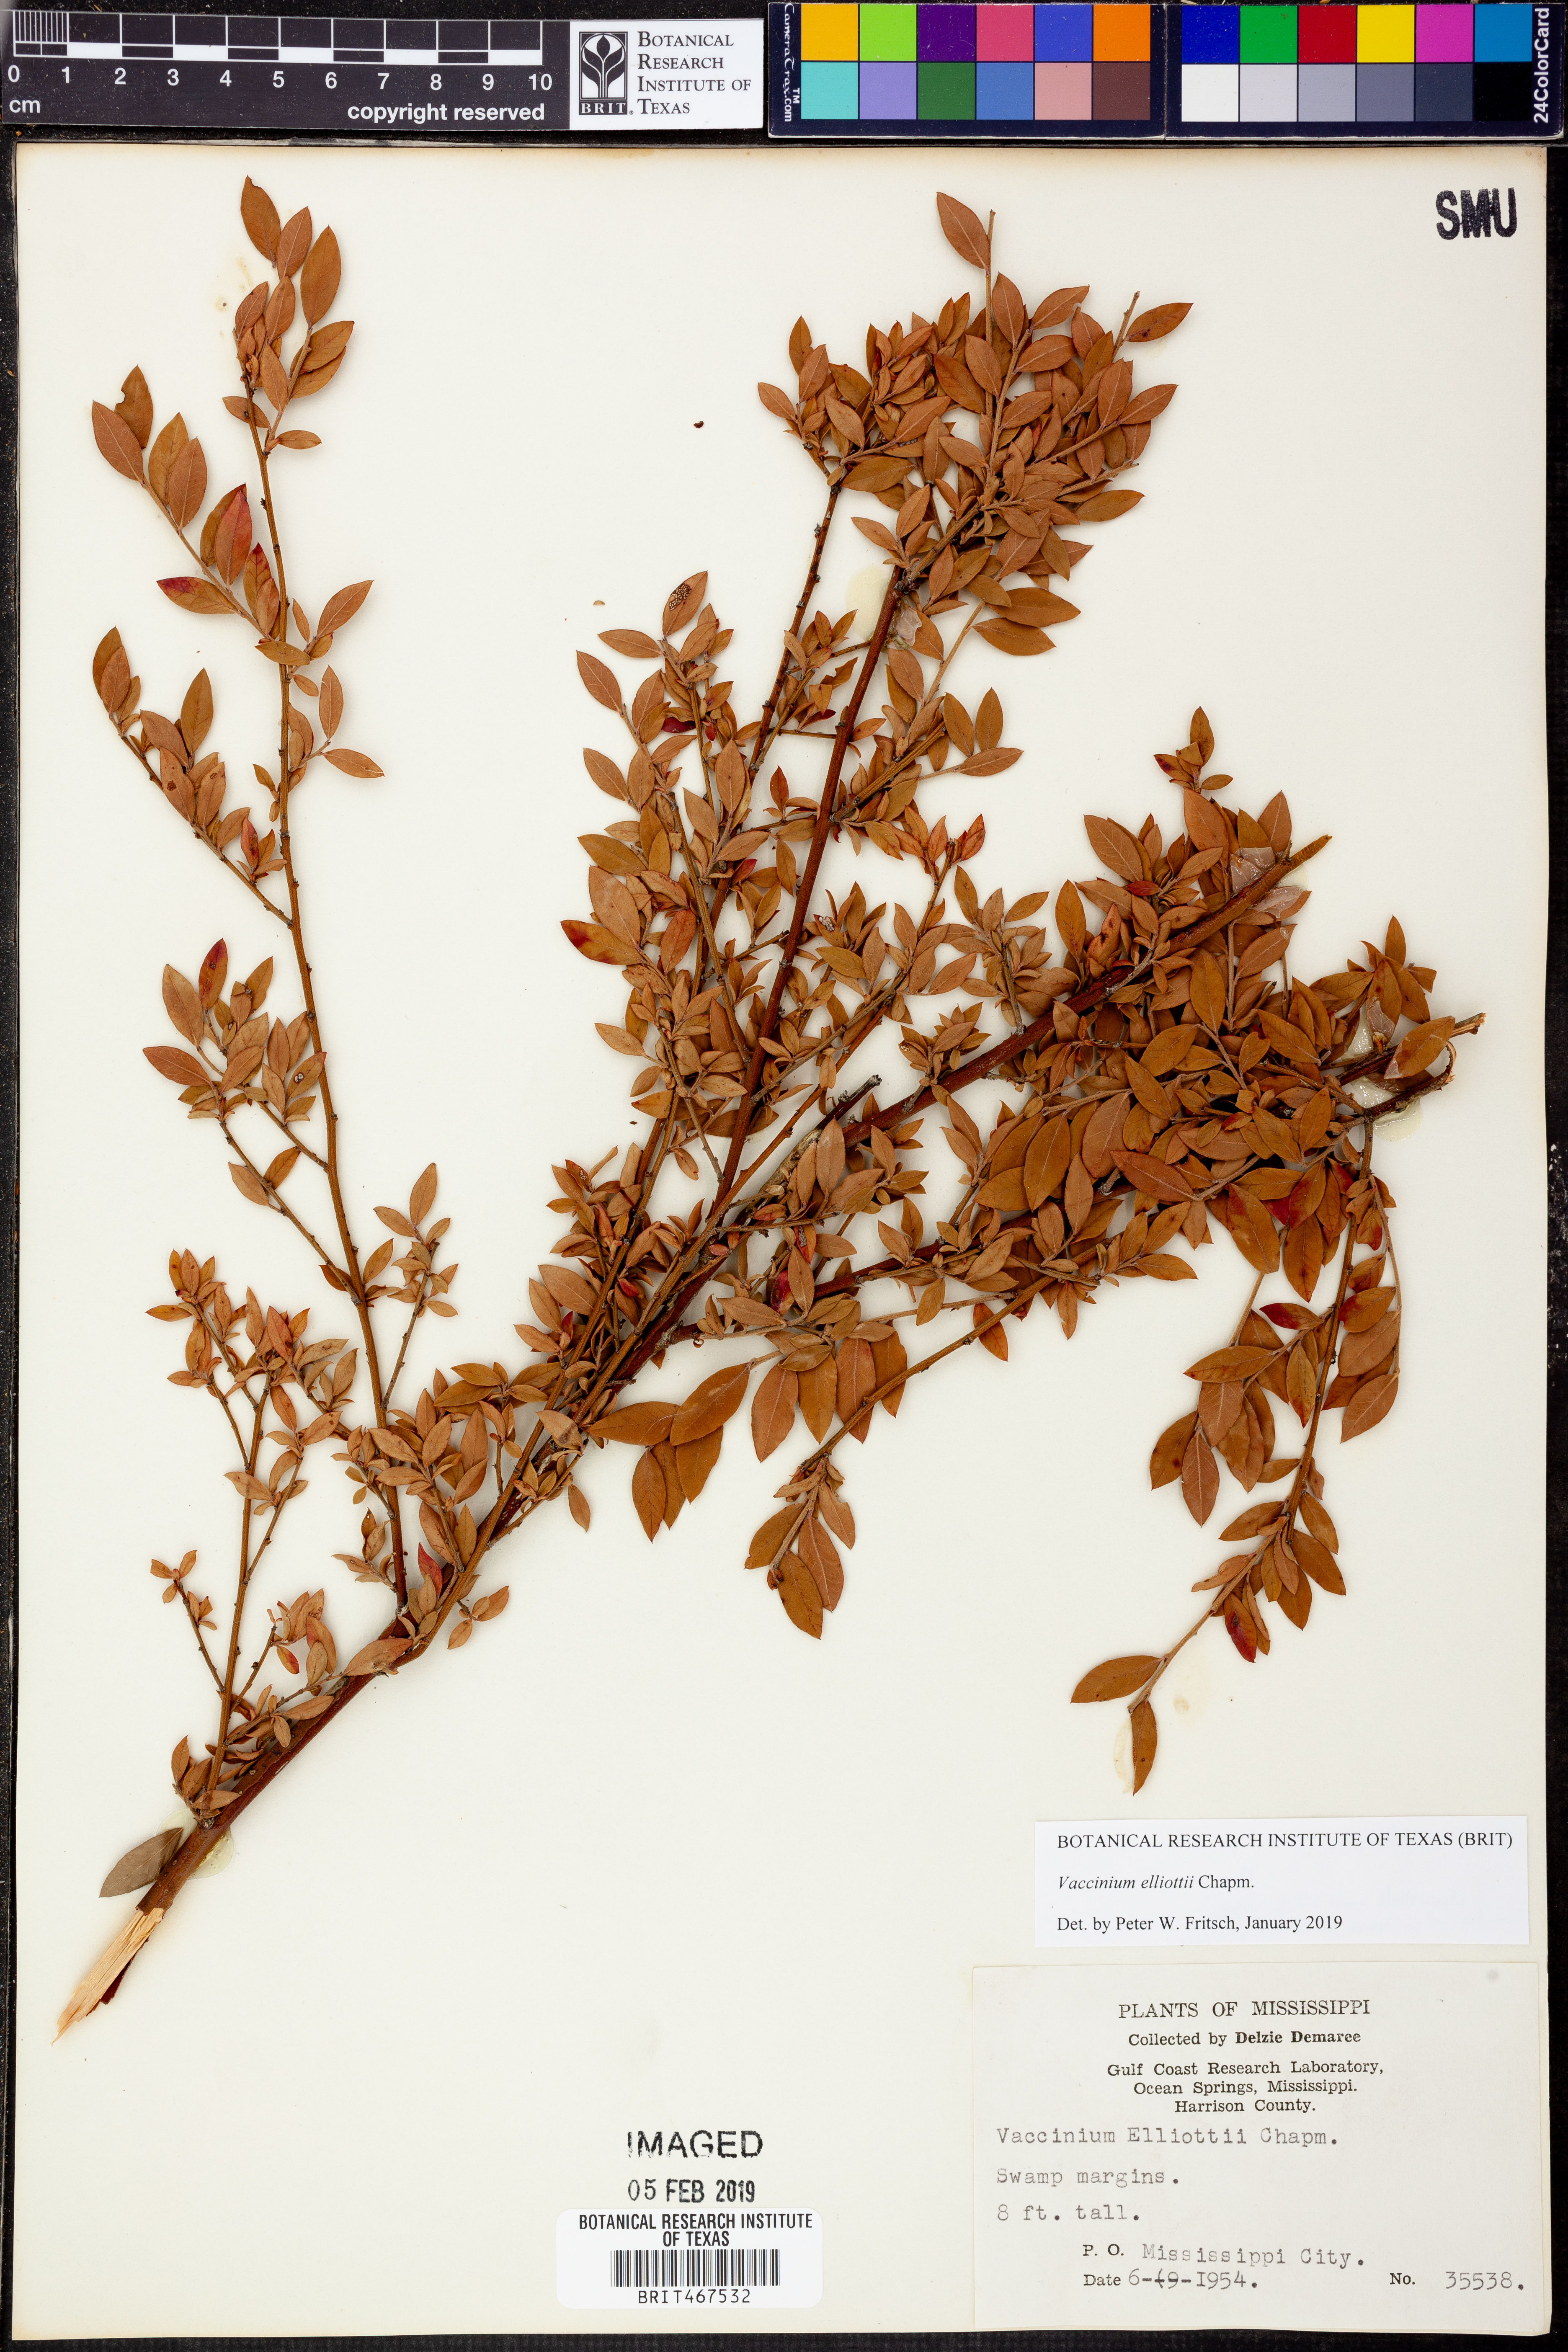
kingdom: Plantae
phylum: Tracheophyta
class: Magnoliopsida
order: Ericales
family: Ericaceae
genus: Vaccinium
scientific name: Vaccinium corymbosum
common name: Blueberry
